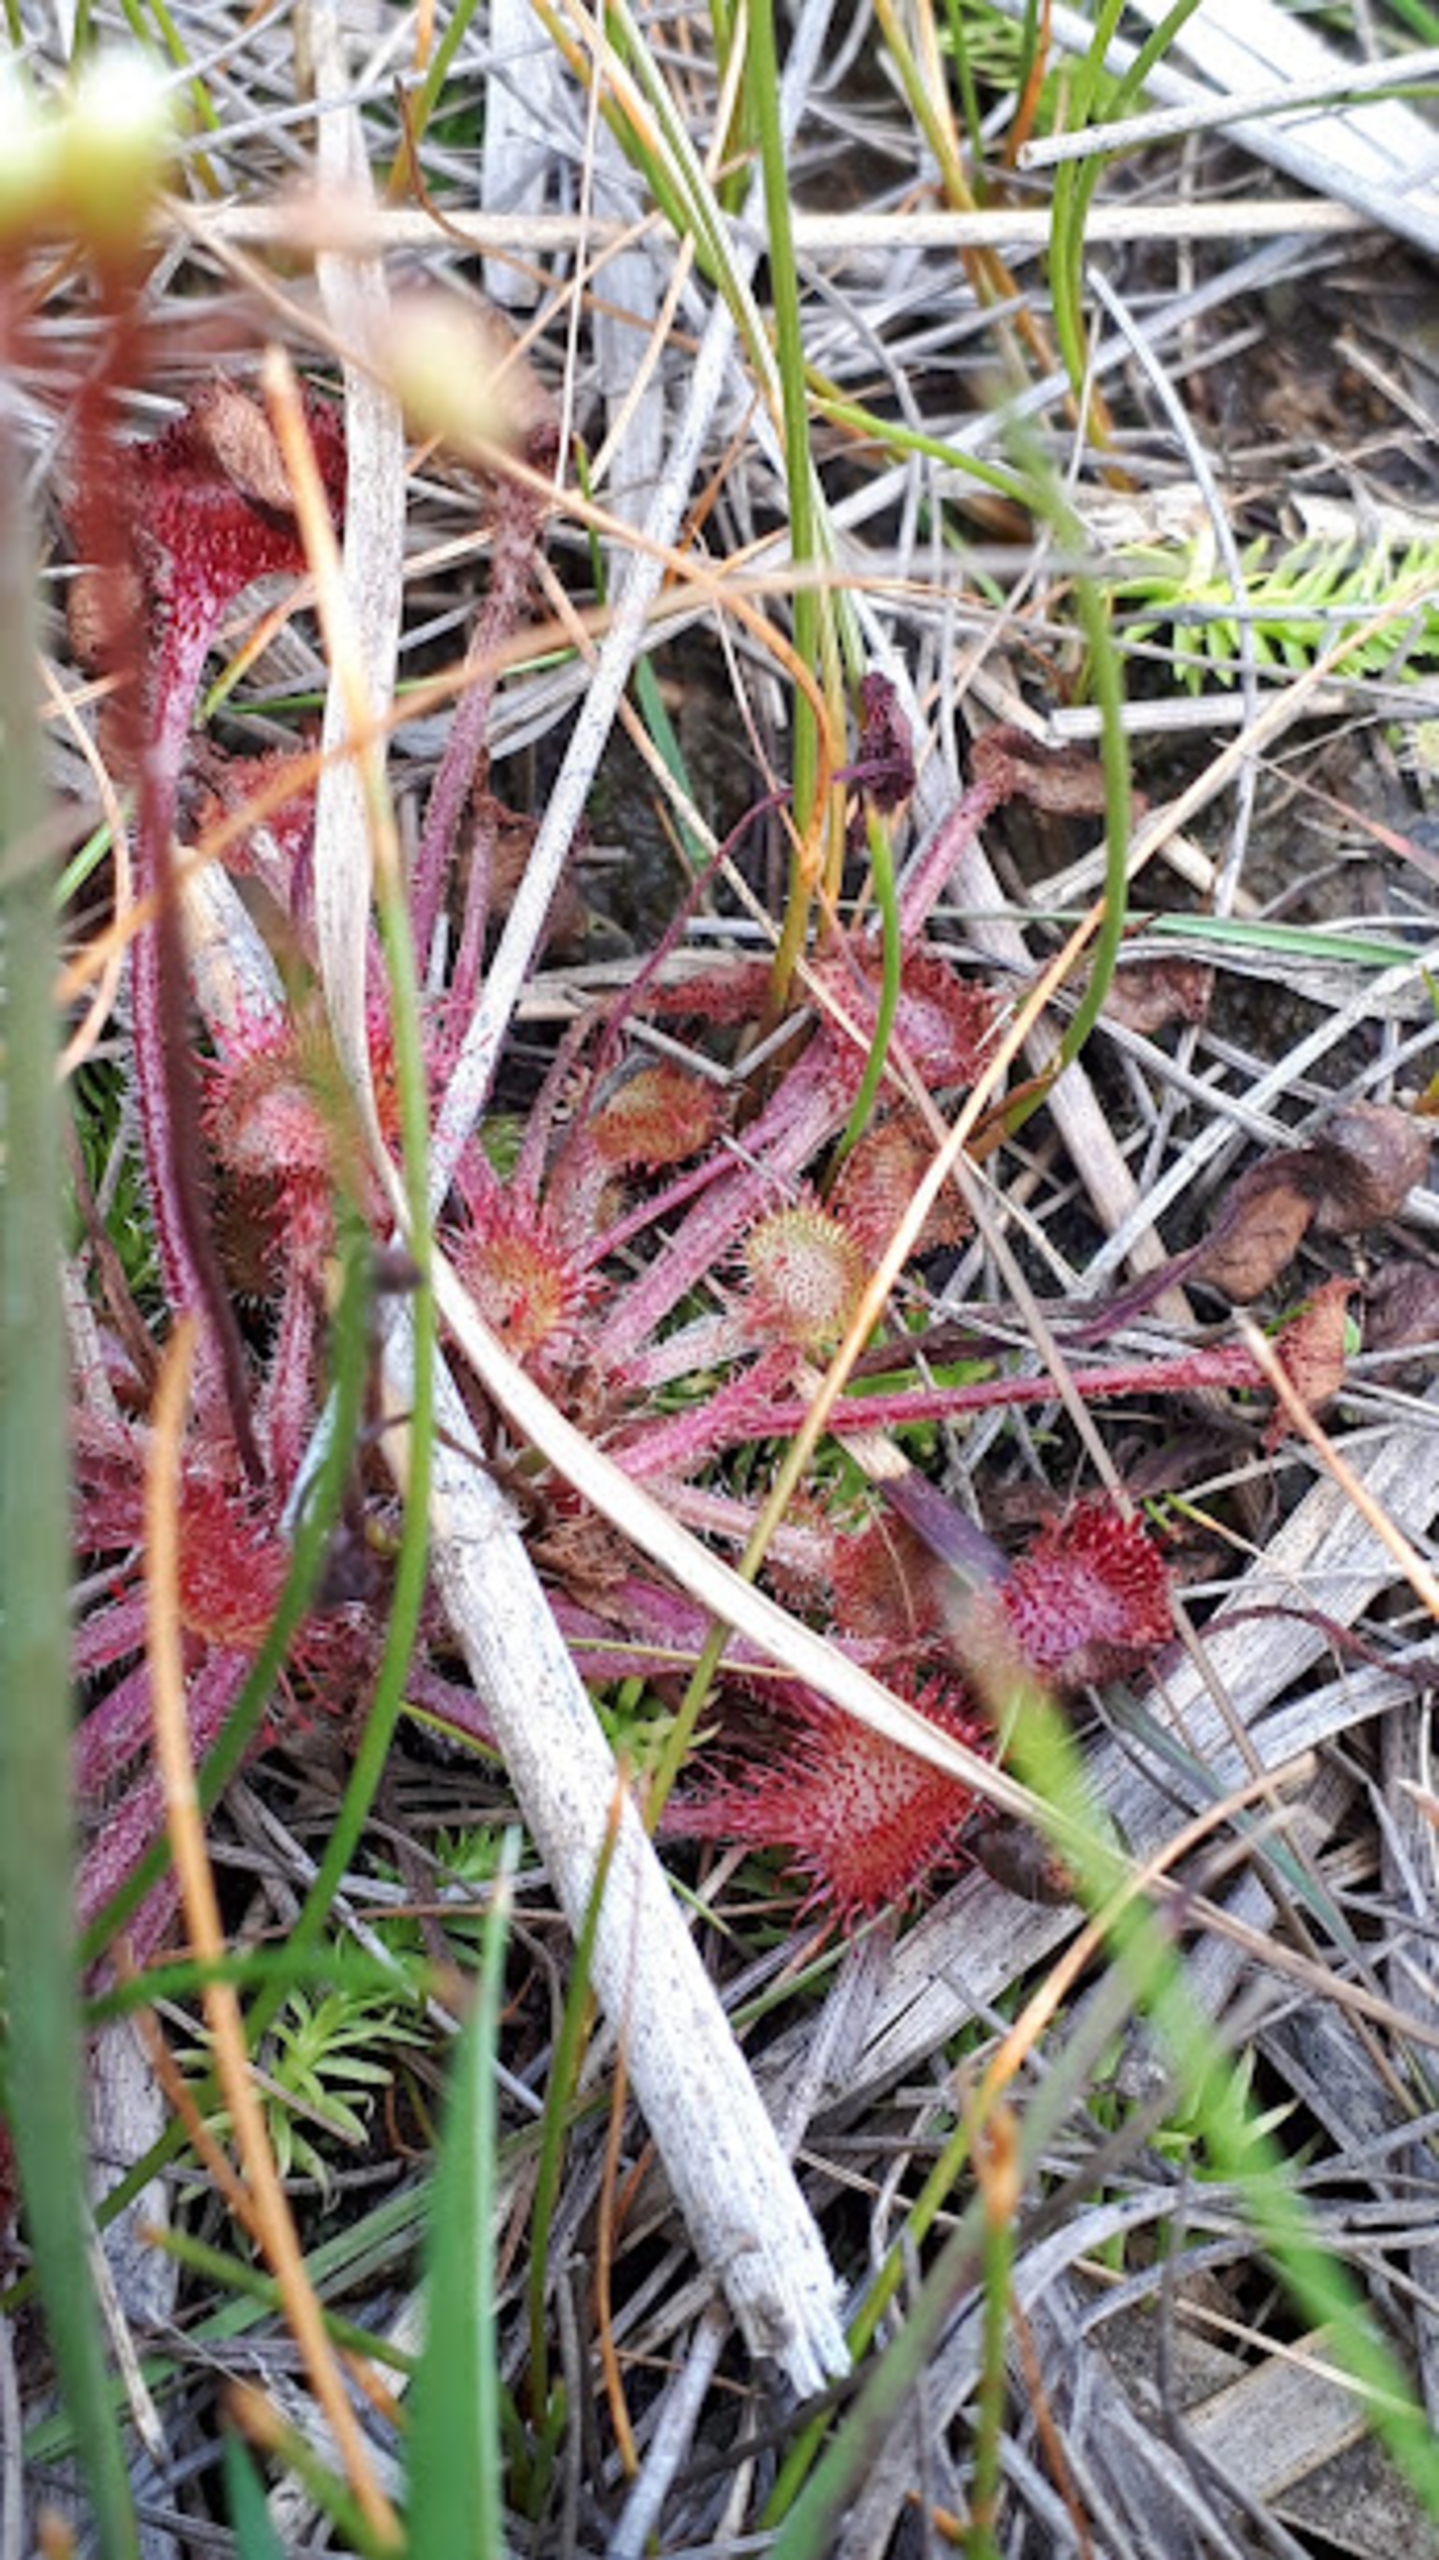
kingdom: Plantae
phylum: Tracheophyta
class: Magnoliopsida
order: Caryophyllales
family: Droseraceae
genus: Drosera
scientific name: Drosera rotundifolia
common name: Rundbladet soldug
